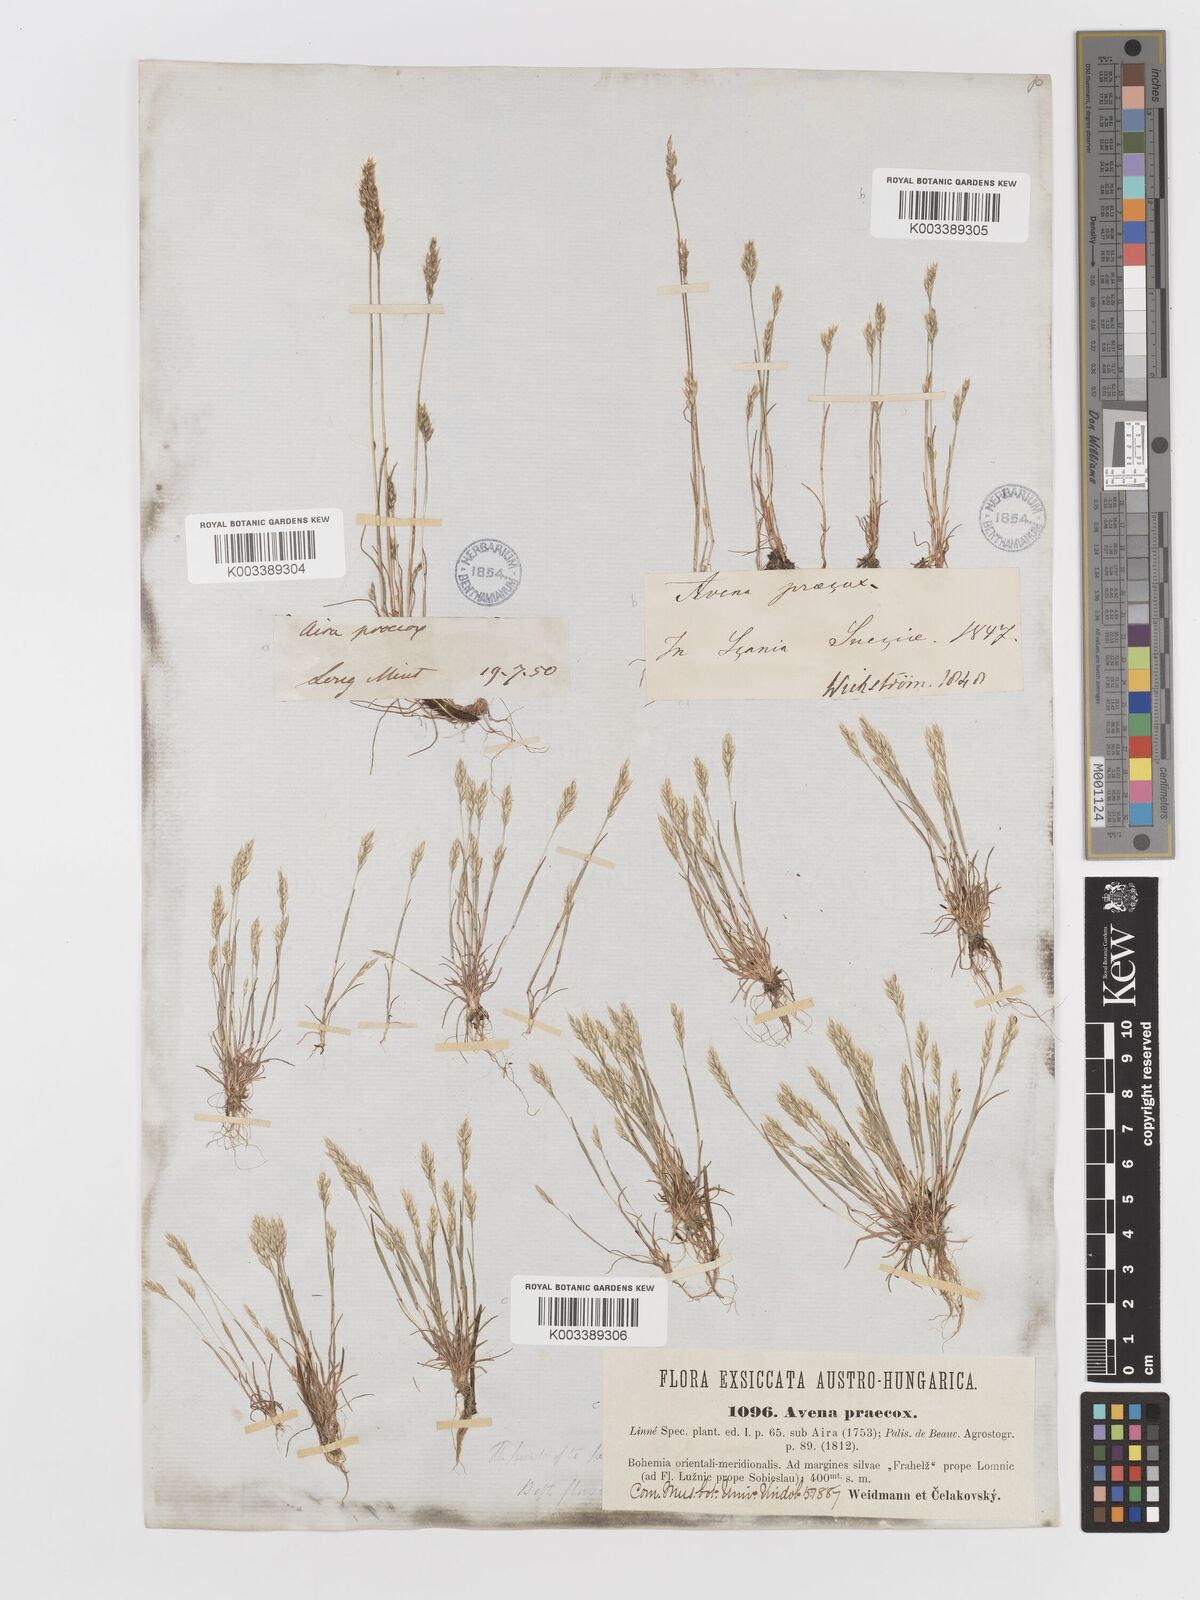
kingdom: Plantae
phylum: Tracheophyta
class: Liliopsida
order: Poales
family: Poaceae
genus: Aira
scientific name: Aira praecox
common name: Early hair-grass
